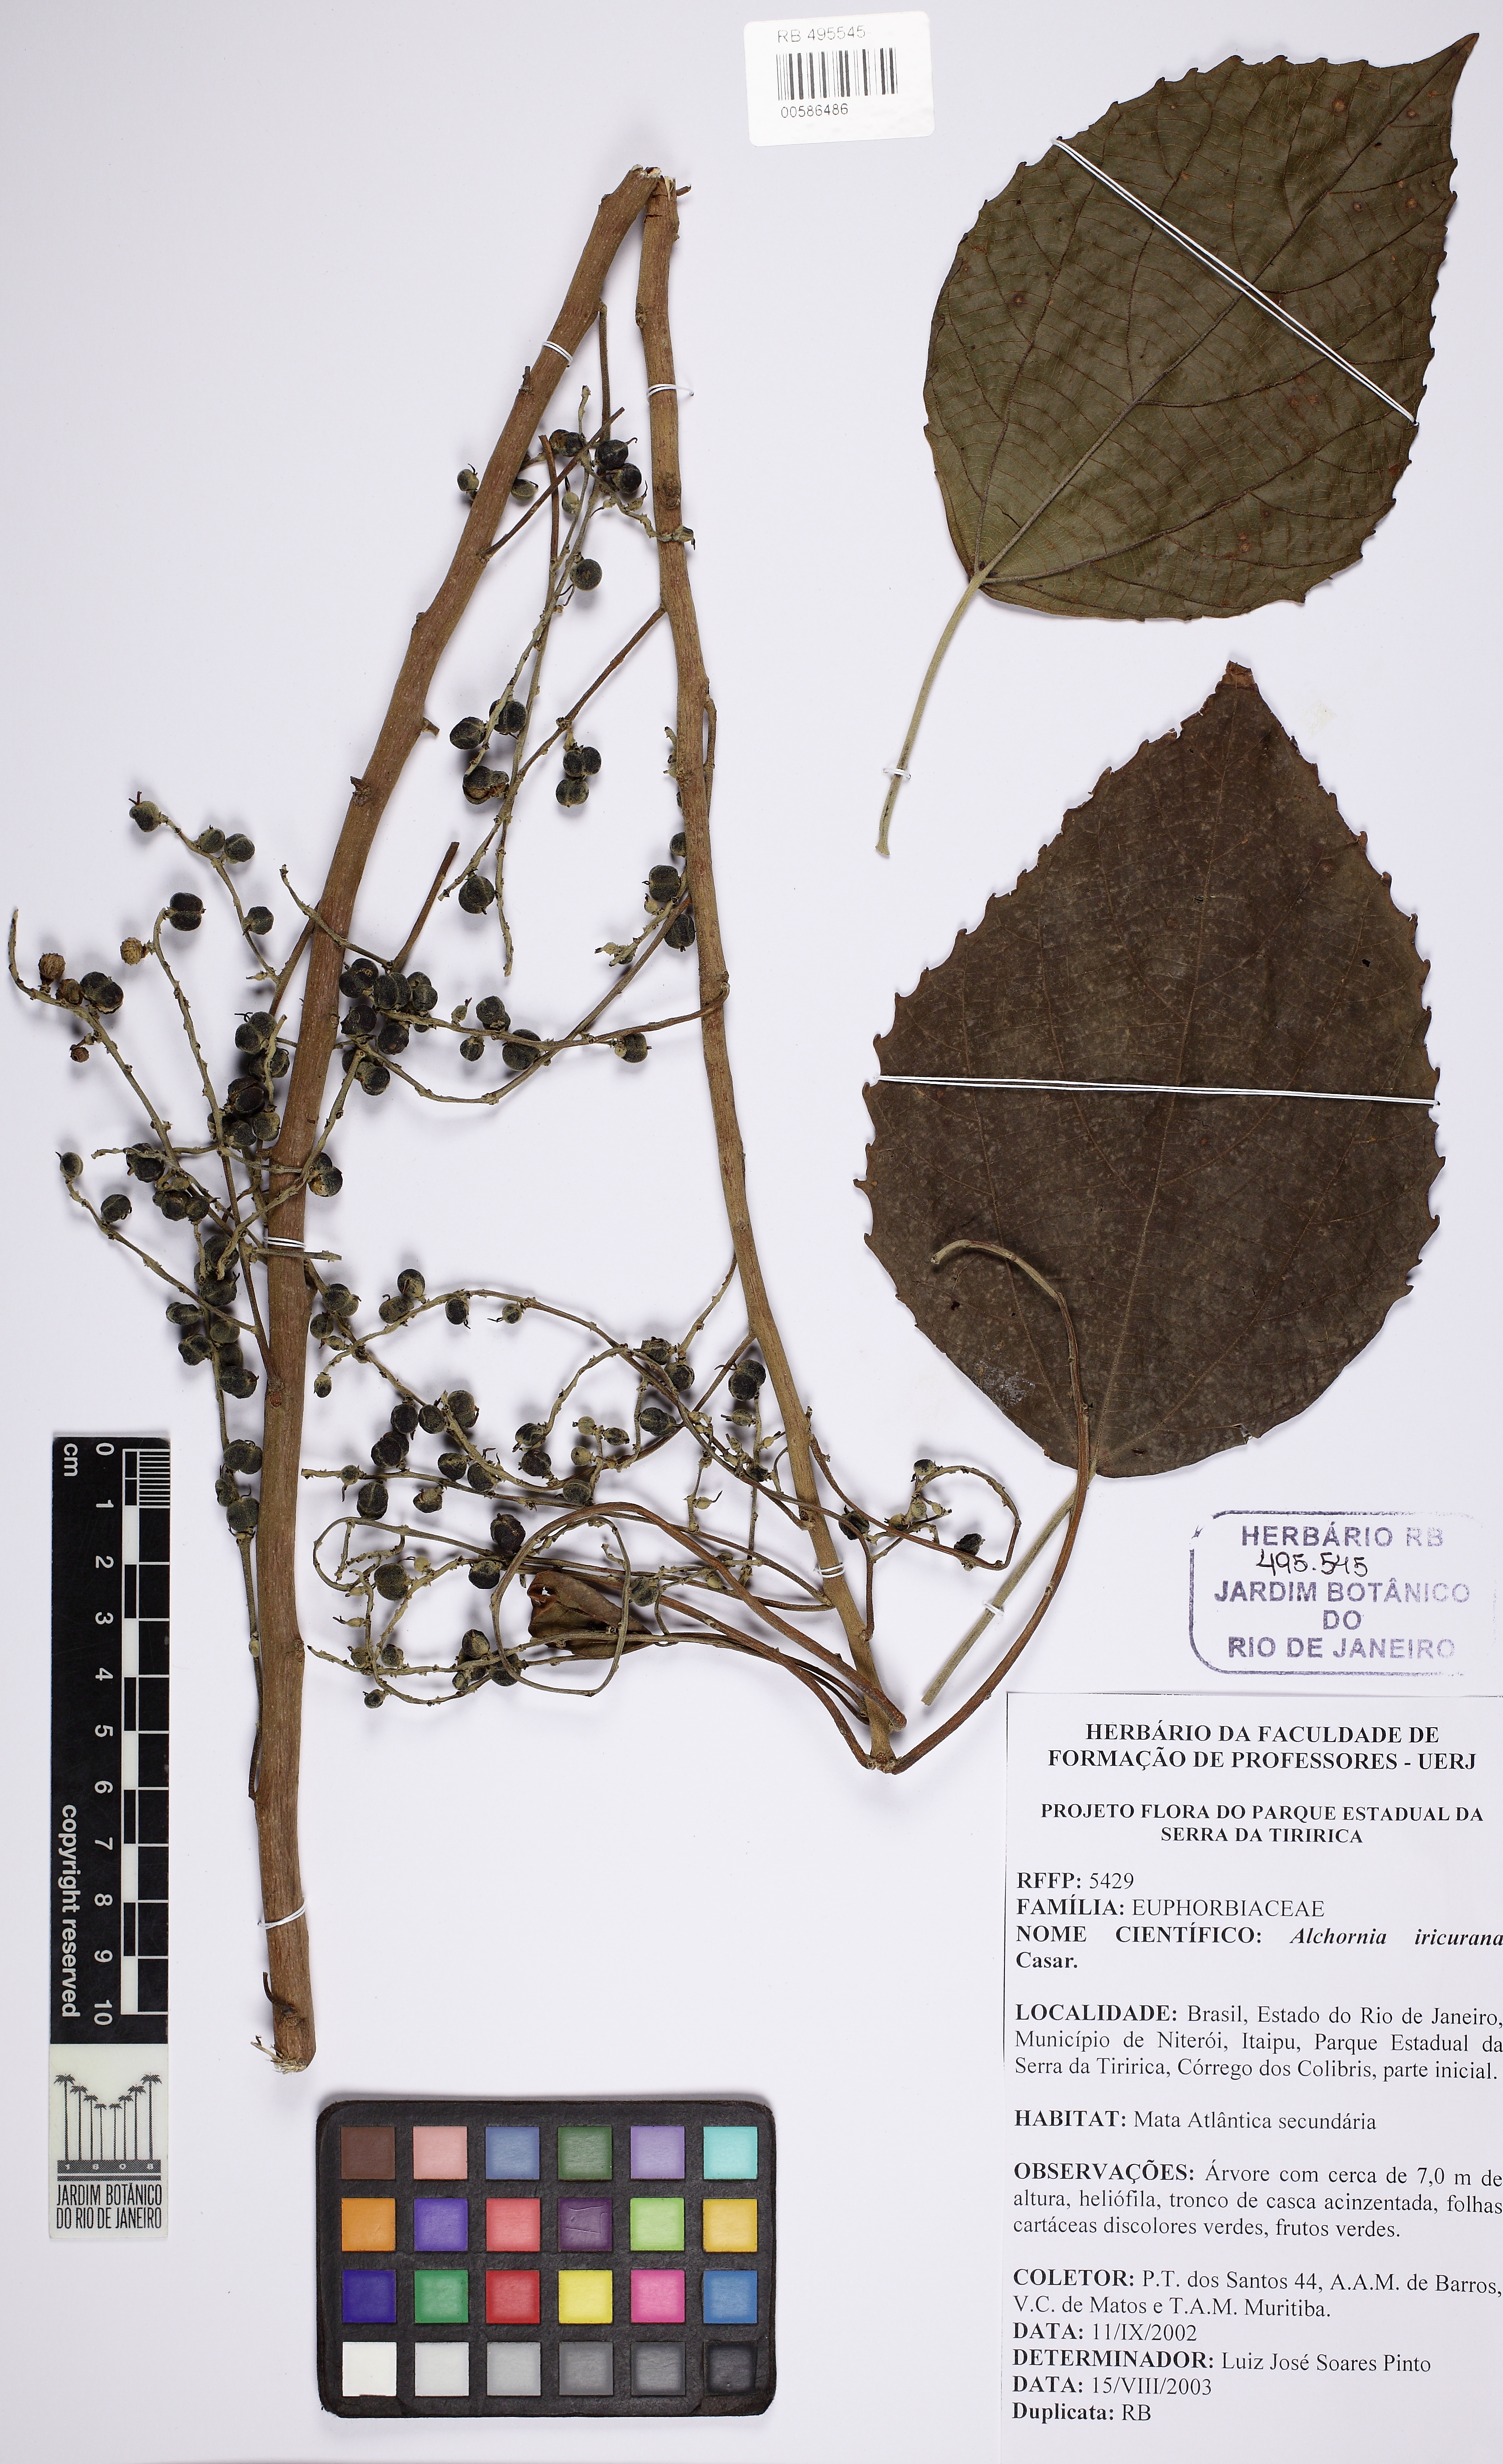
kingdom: Plantae
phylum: Tracheophyta
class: Magnoliopsida
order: Malpighiales
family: Euphorbiaceae
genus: Alchornea
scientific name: Alchornea glandulosa
